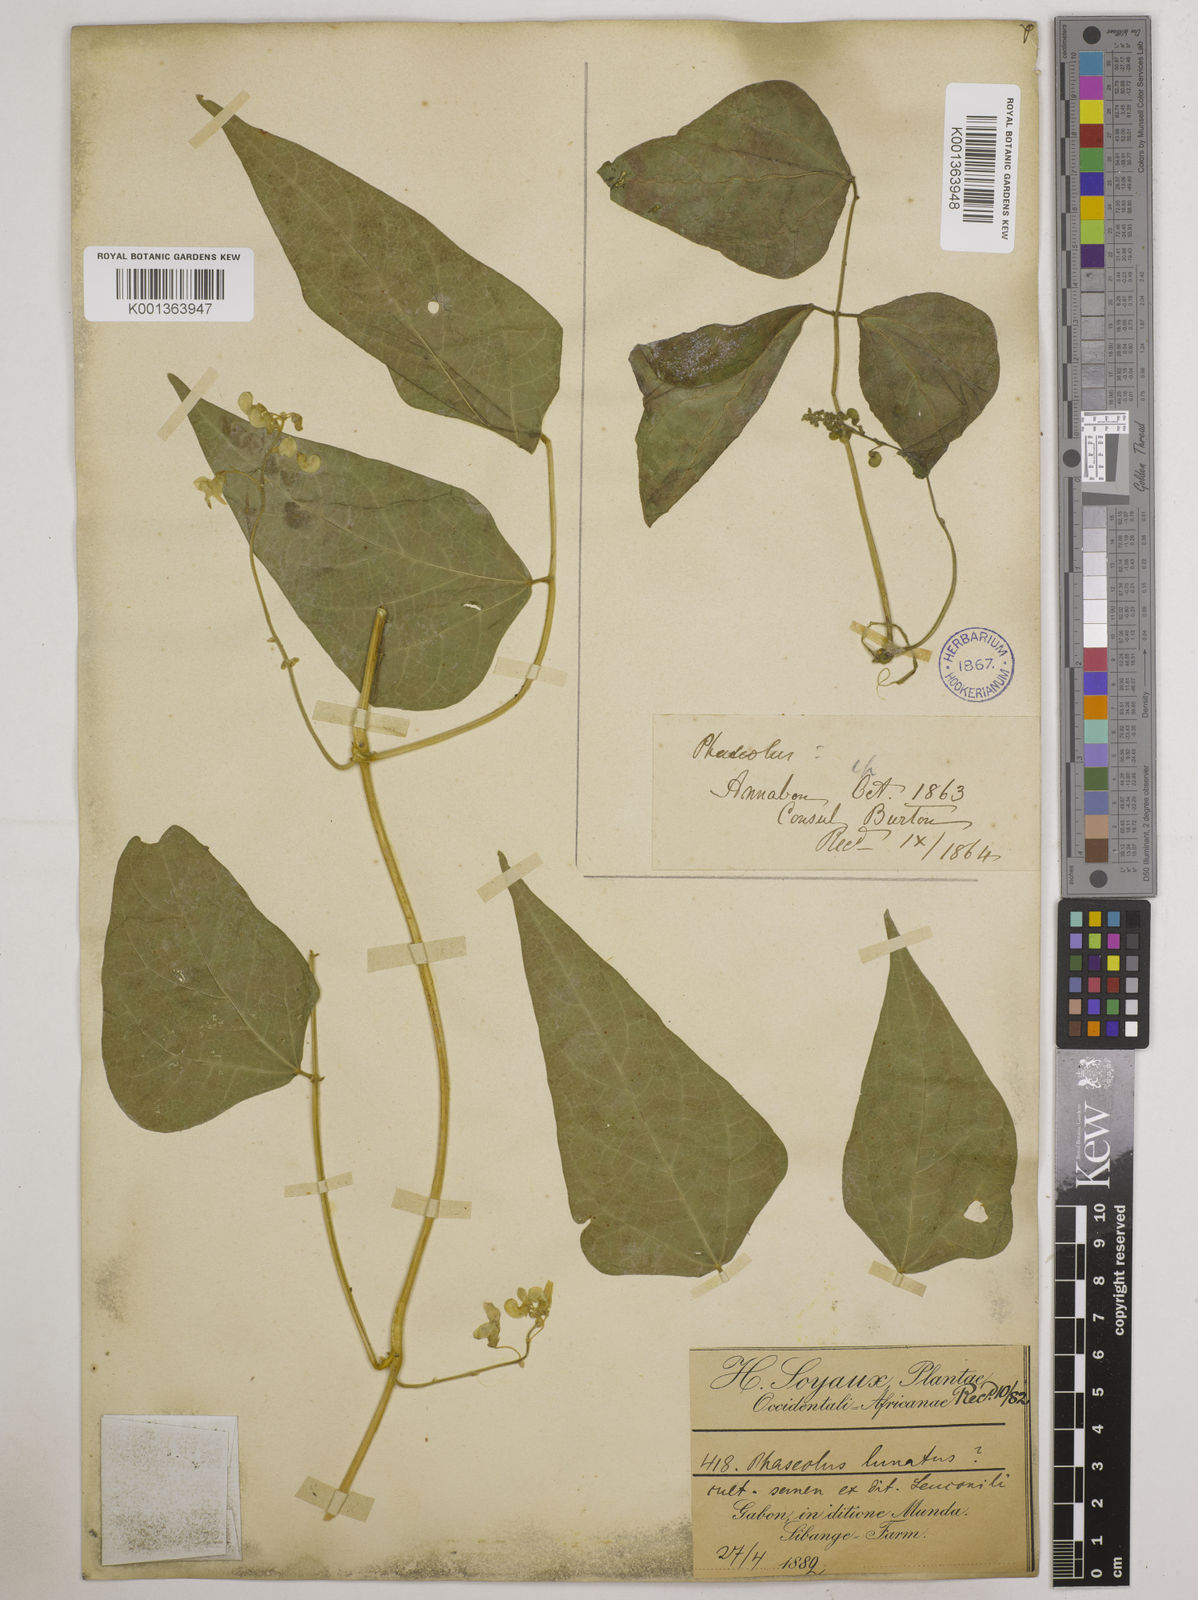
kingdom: Plantae
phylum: Tracheophyta
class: Magnoliopsida
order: Fabales
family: Fabaceae
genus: Phaseolus
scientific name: Phaseolus lunatus
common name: Sieva bean
